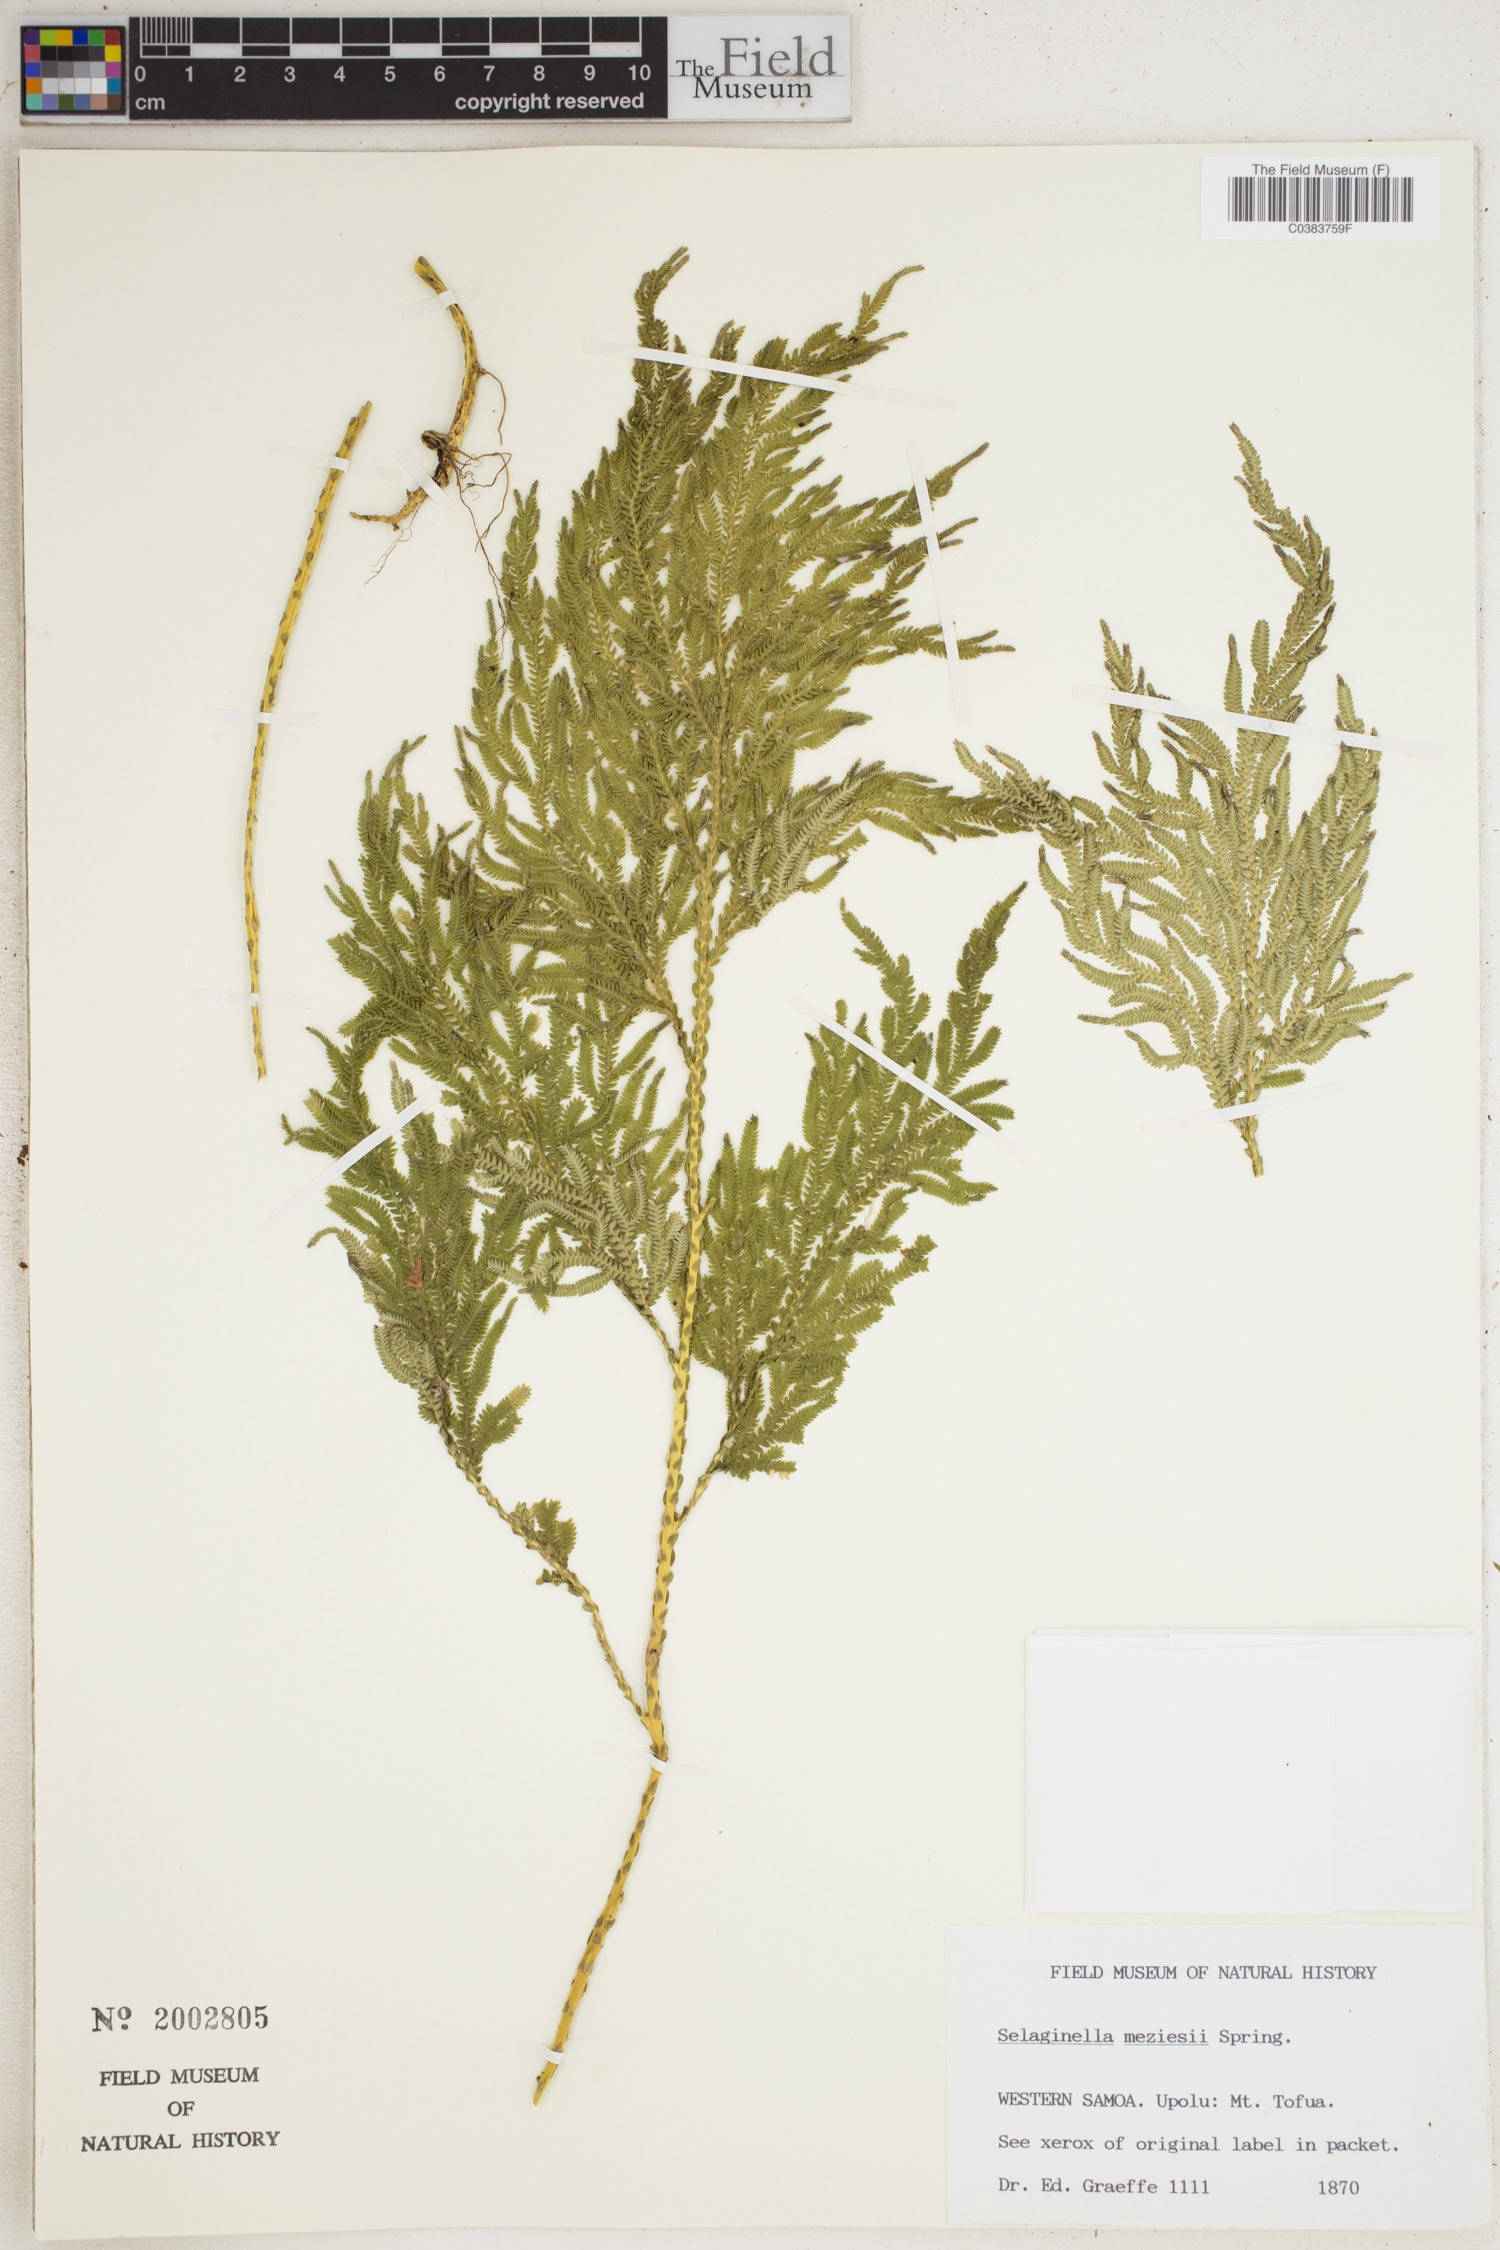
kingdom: Plantae
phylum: Tracheophyta
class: Lycopodiopsida
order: Selaginellales
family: Selaginellaceae
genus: Selaginella
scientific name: Selaginella menziesii
